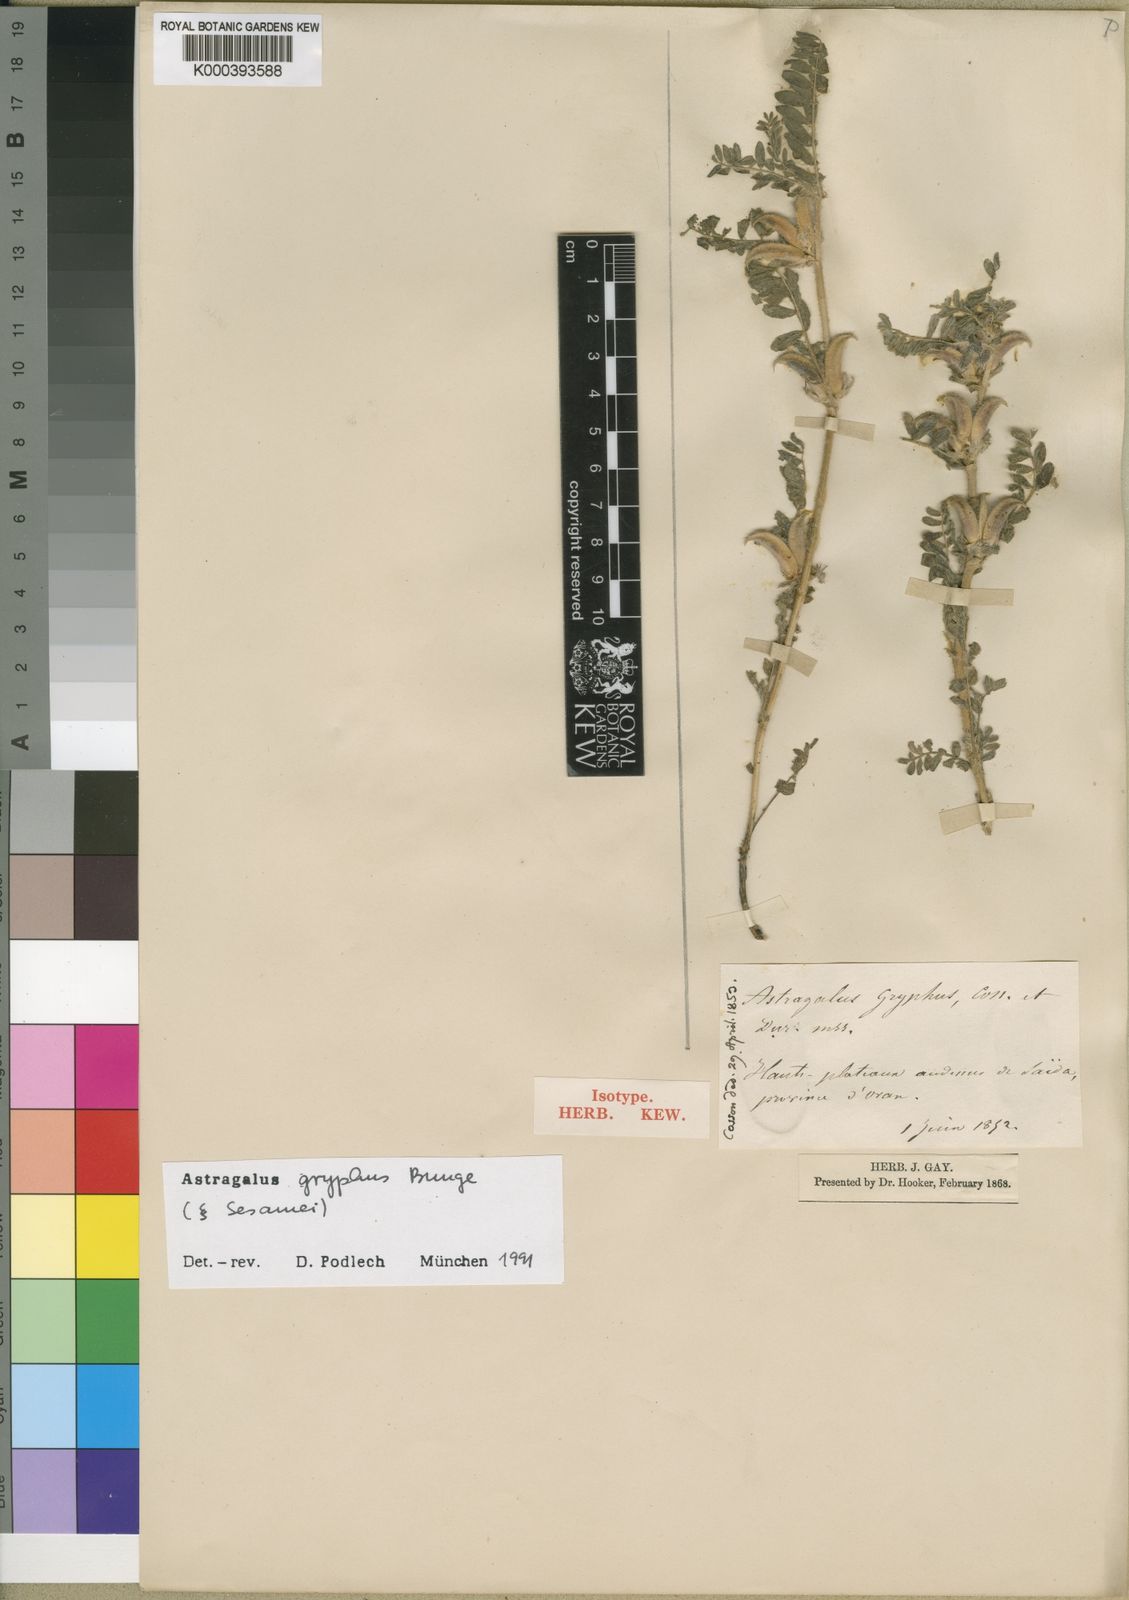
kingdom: Plantae
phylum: Tracheophyta
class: Magnoliopsida
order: Fabales
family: Fabaceae
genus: Astragalus
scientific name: Astragalus gryphus
